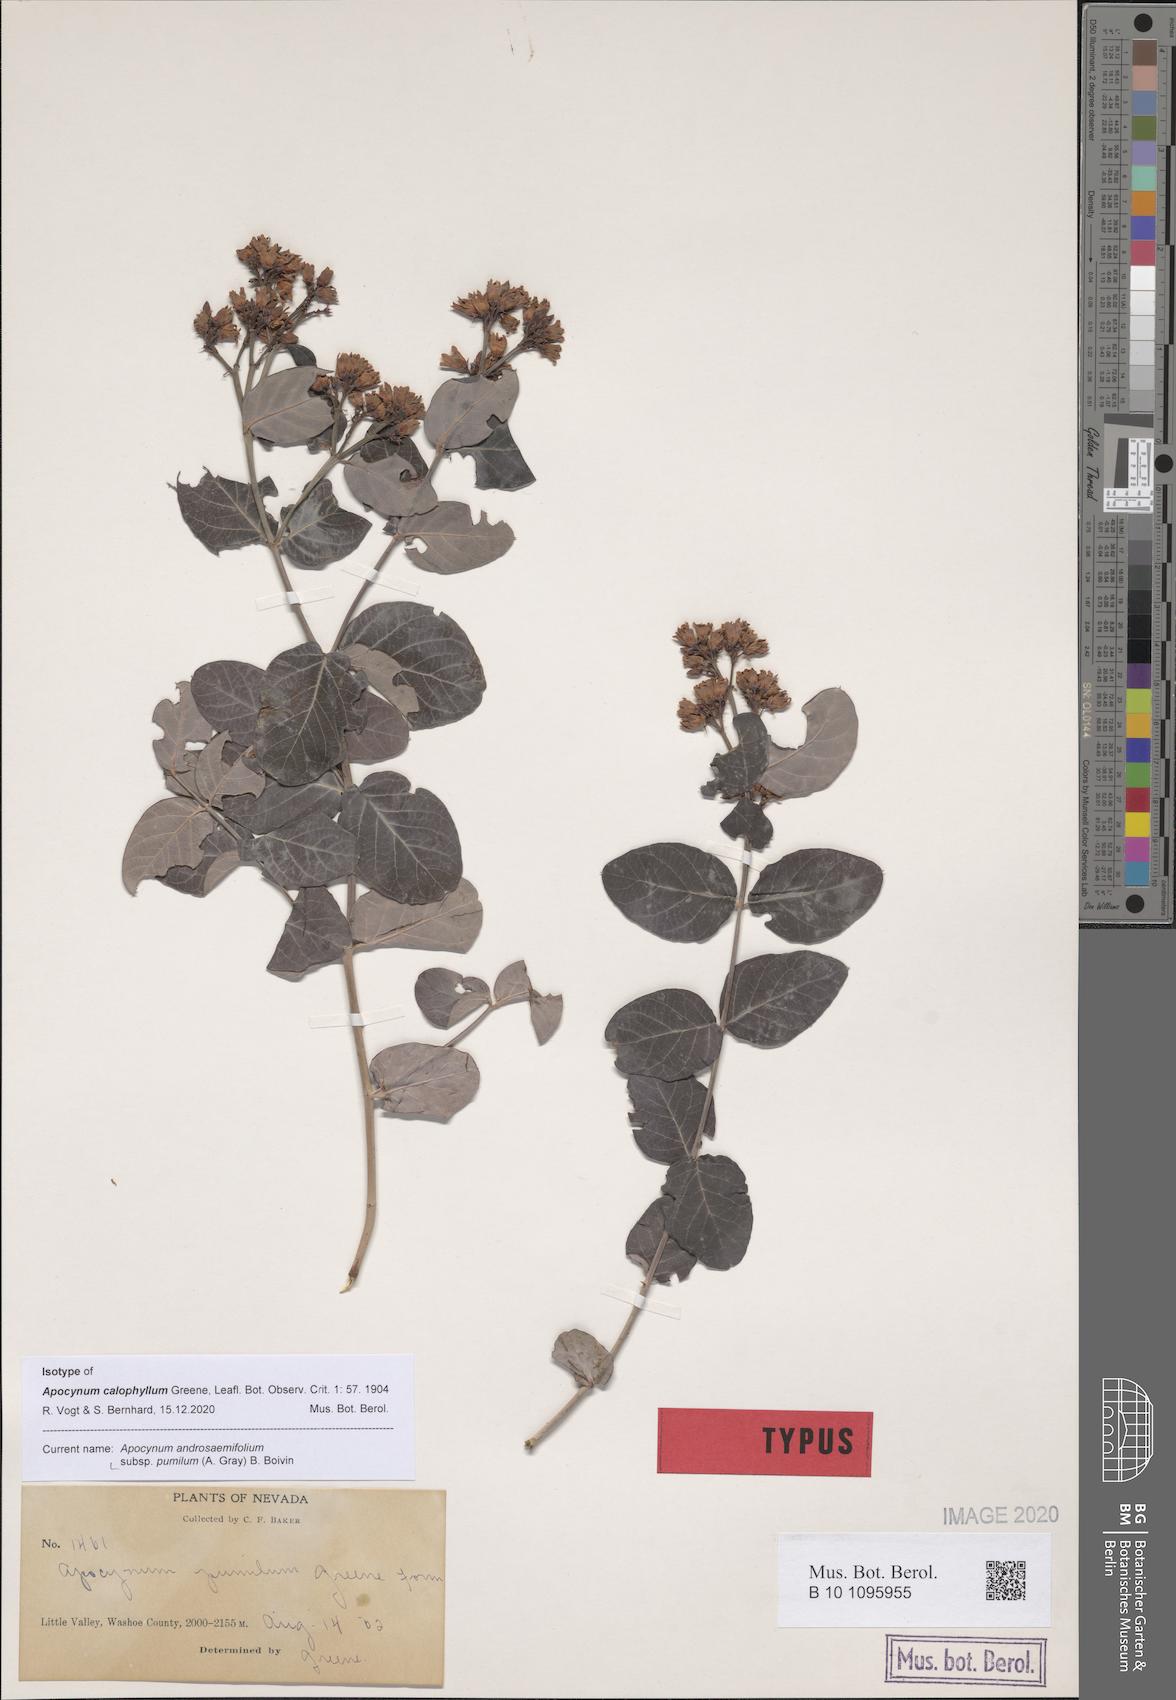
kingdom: Plantae
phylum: Tracheophyta
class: Magnoliopsida
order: Gentianales
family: Apocynaceae
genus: Apocynum
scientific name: Apocynum androsaemifolium
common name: Spreading dogbane
